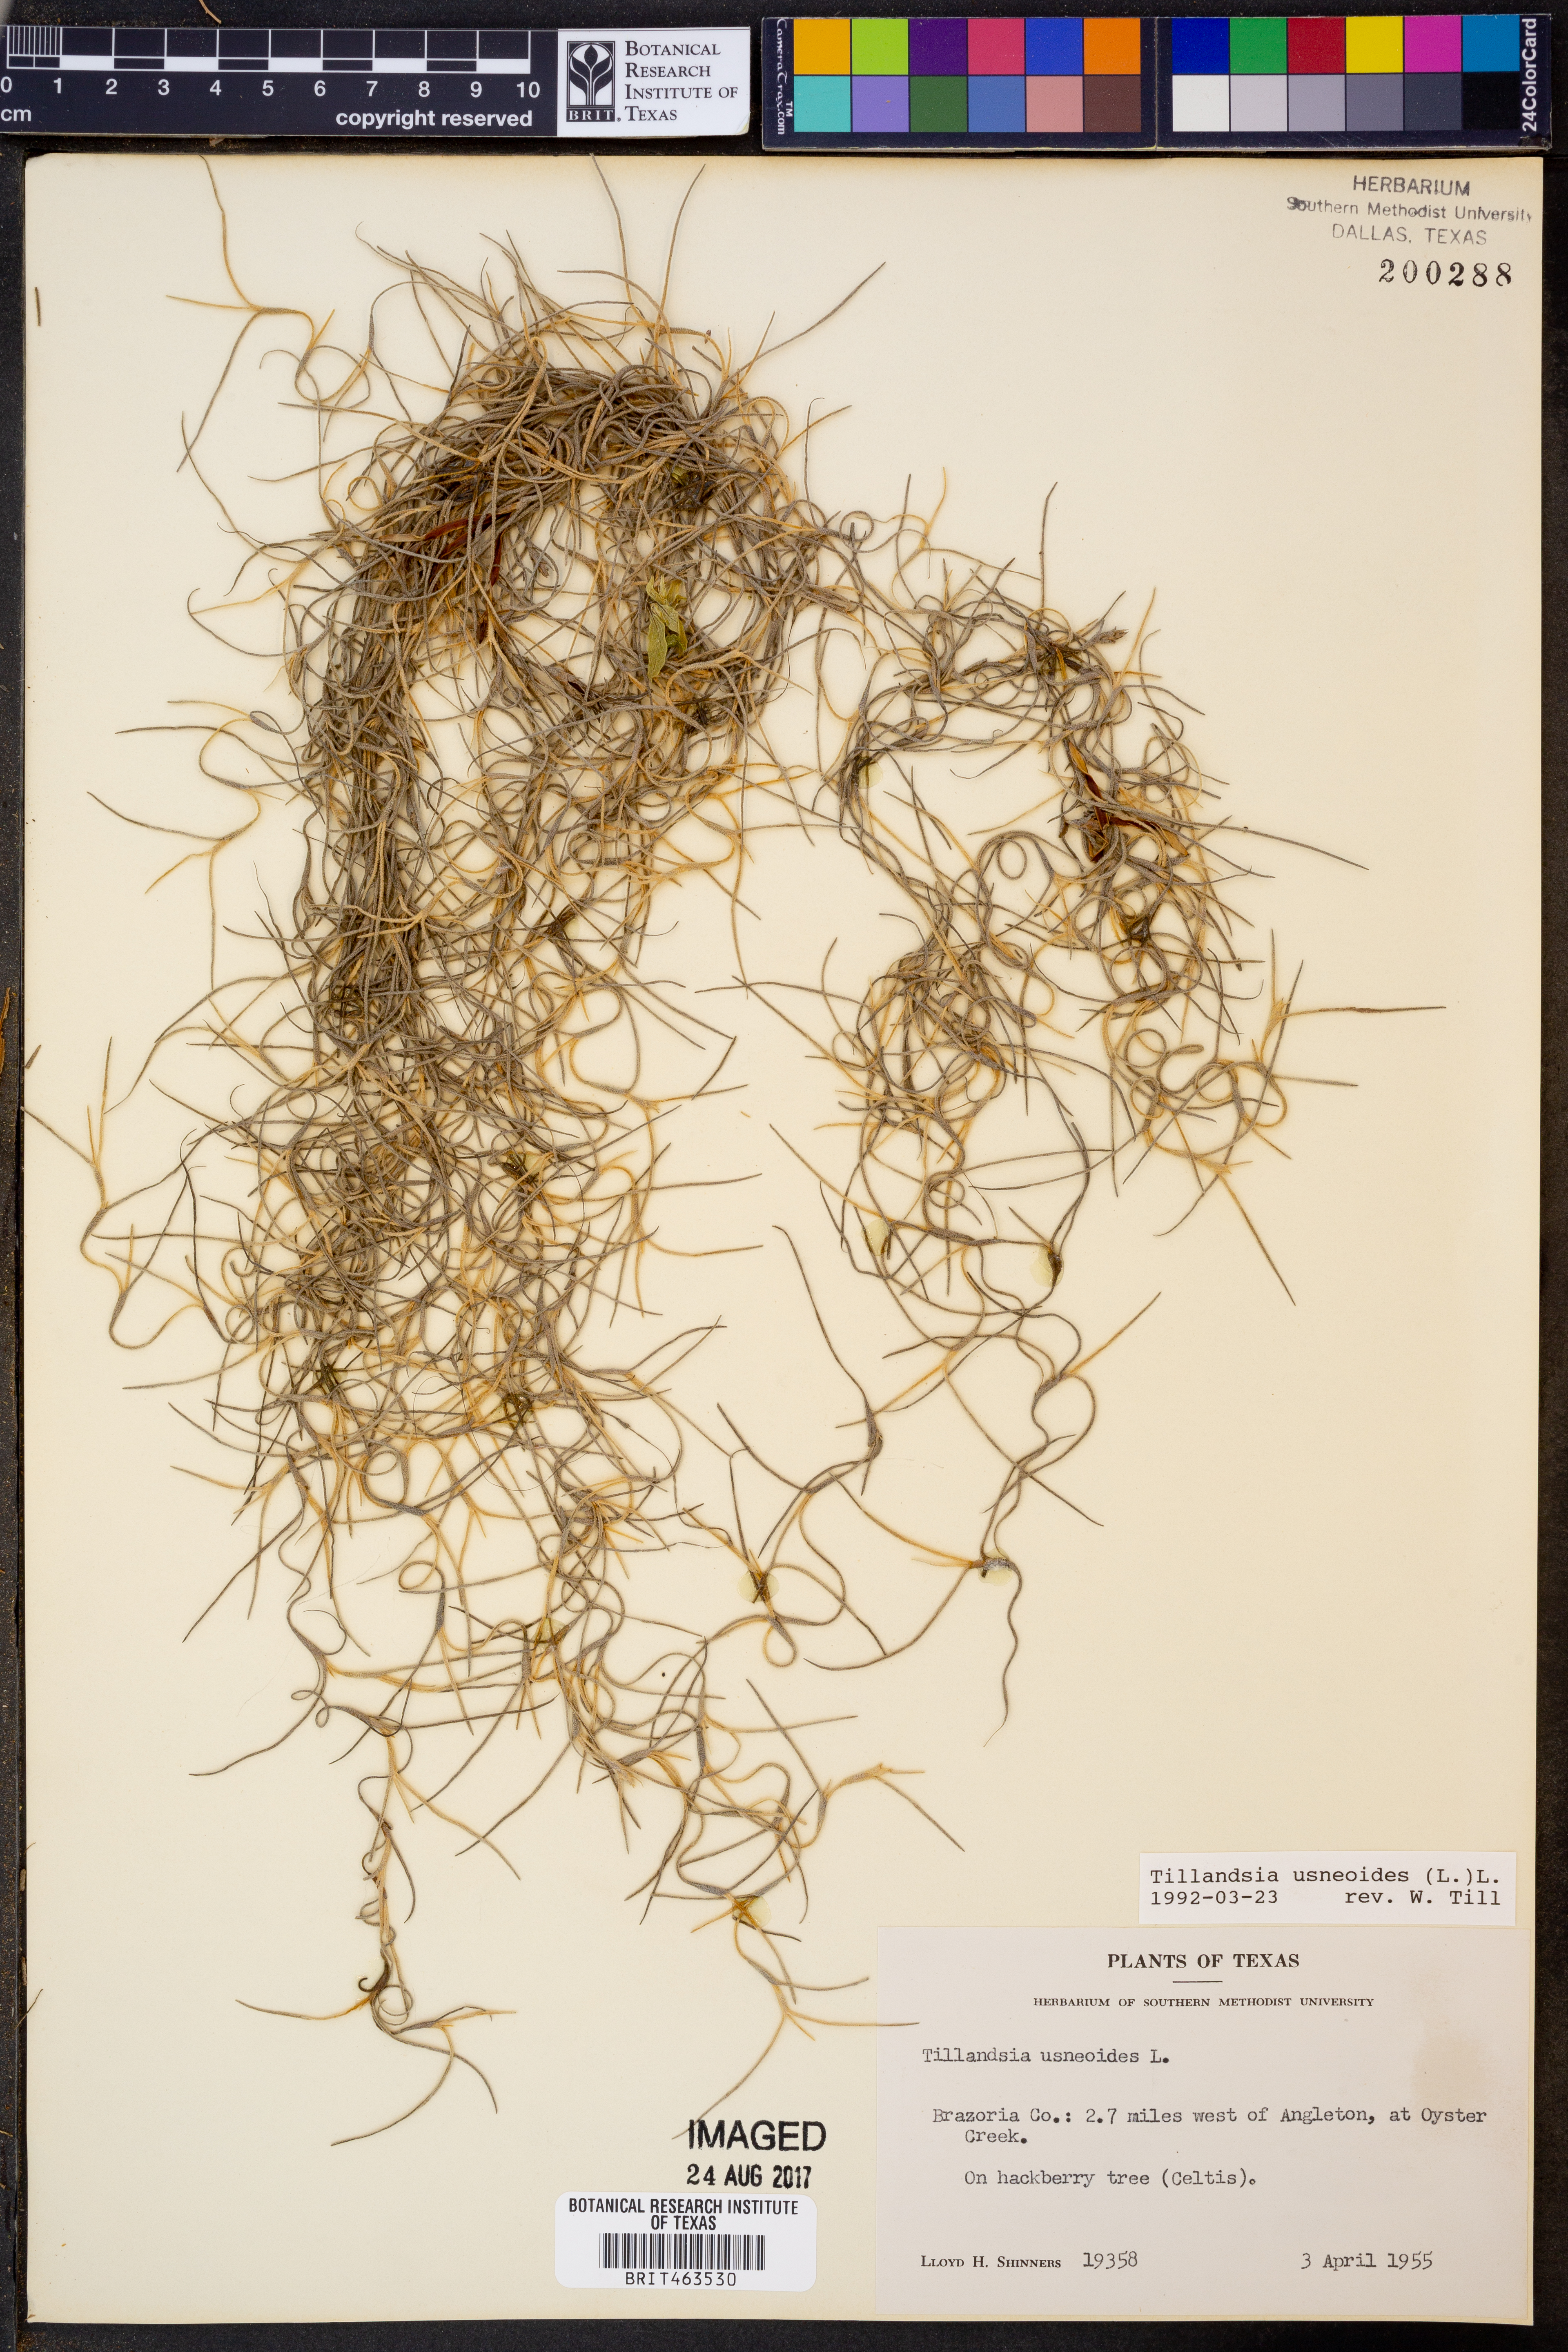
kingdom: Plantae
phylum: Tracheophyta
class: Liliopsida
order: Poales
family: Bromeliaceae
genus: Tillandsia
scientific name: Tillandsia usneoides
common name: Spanish moss
